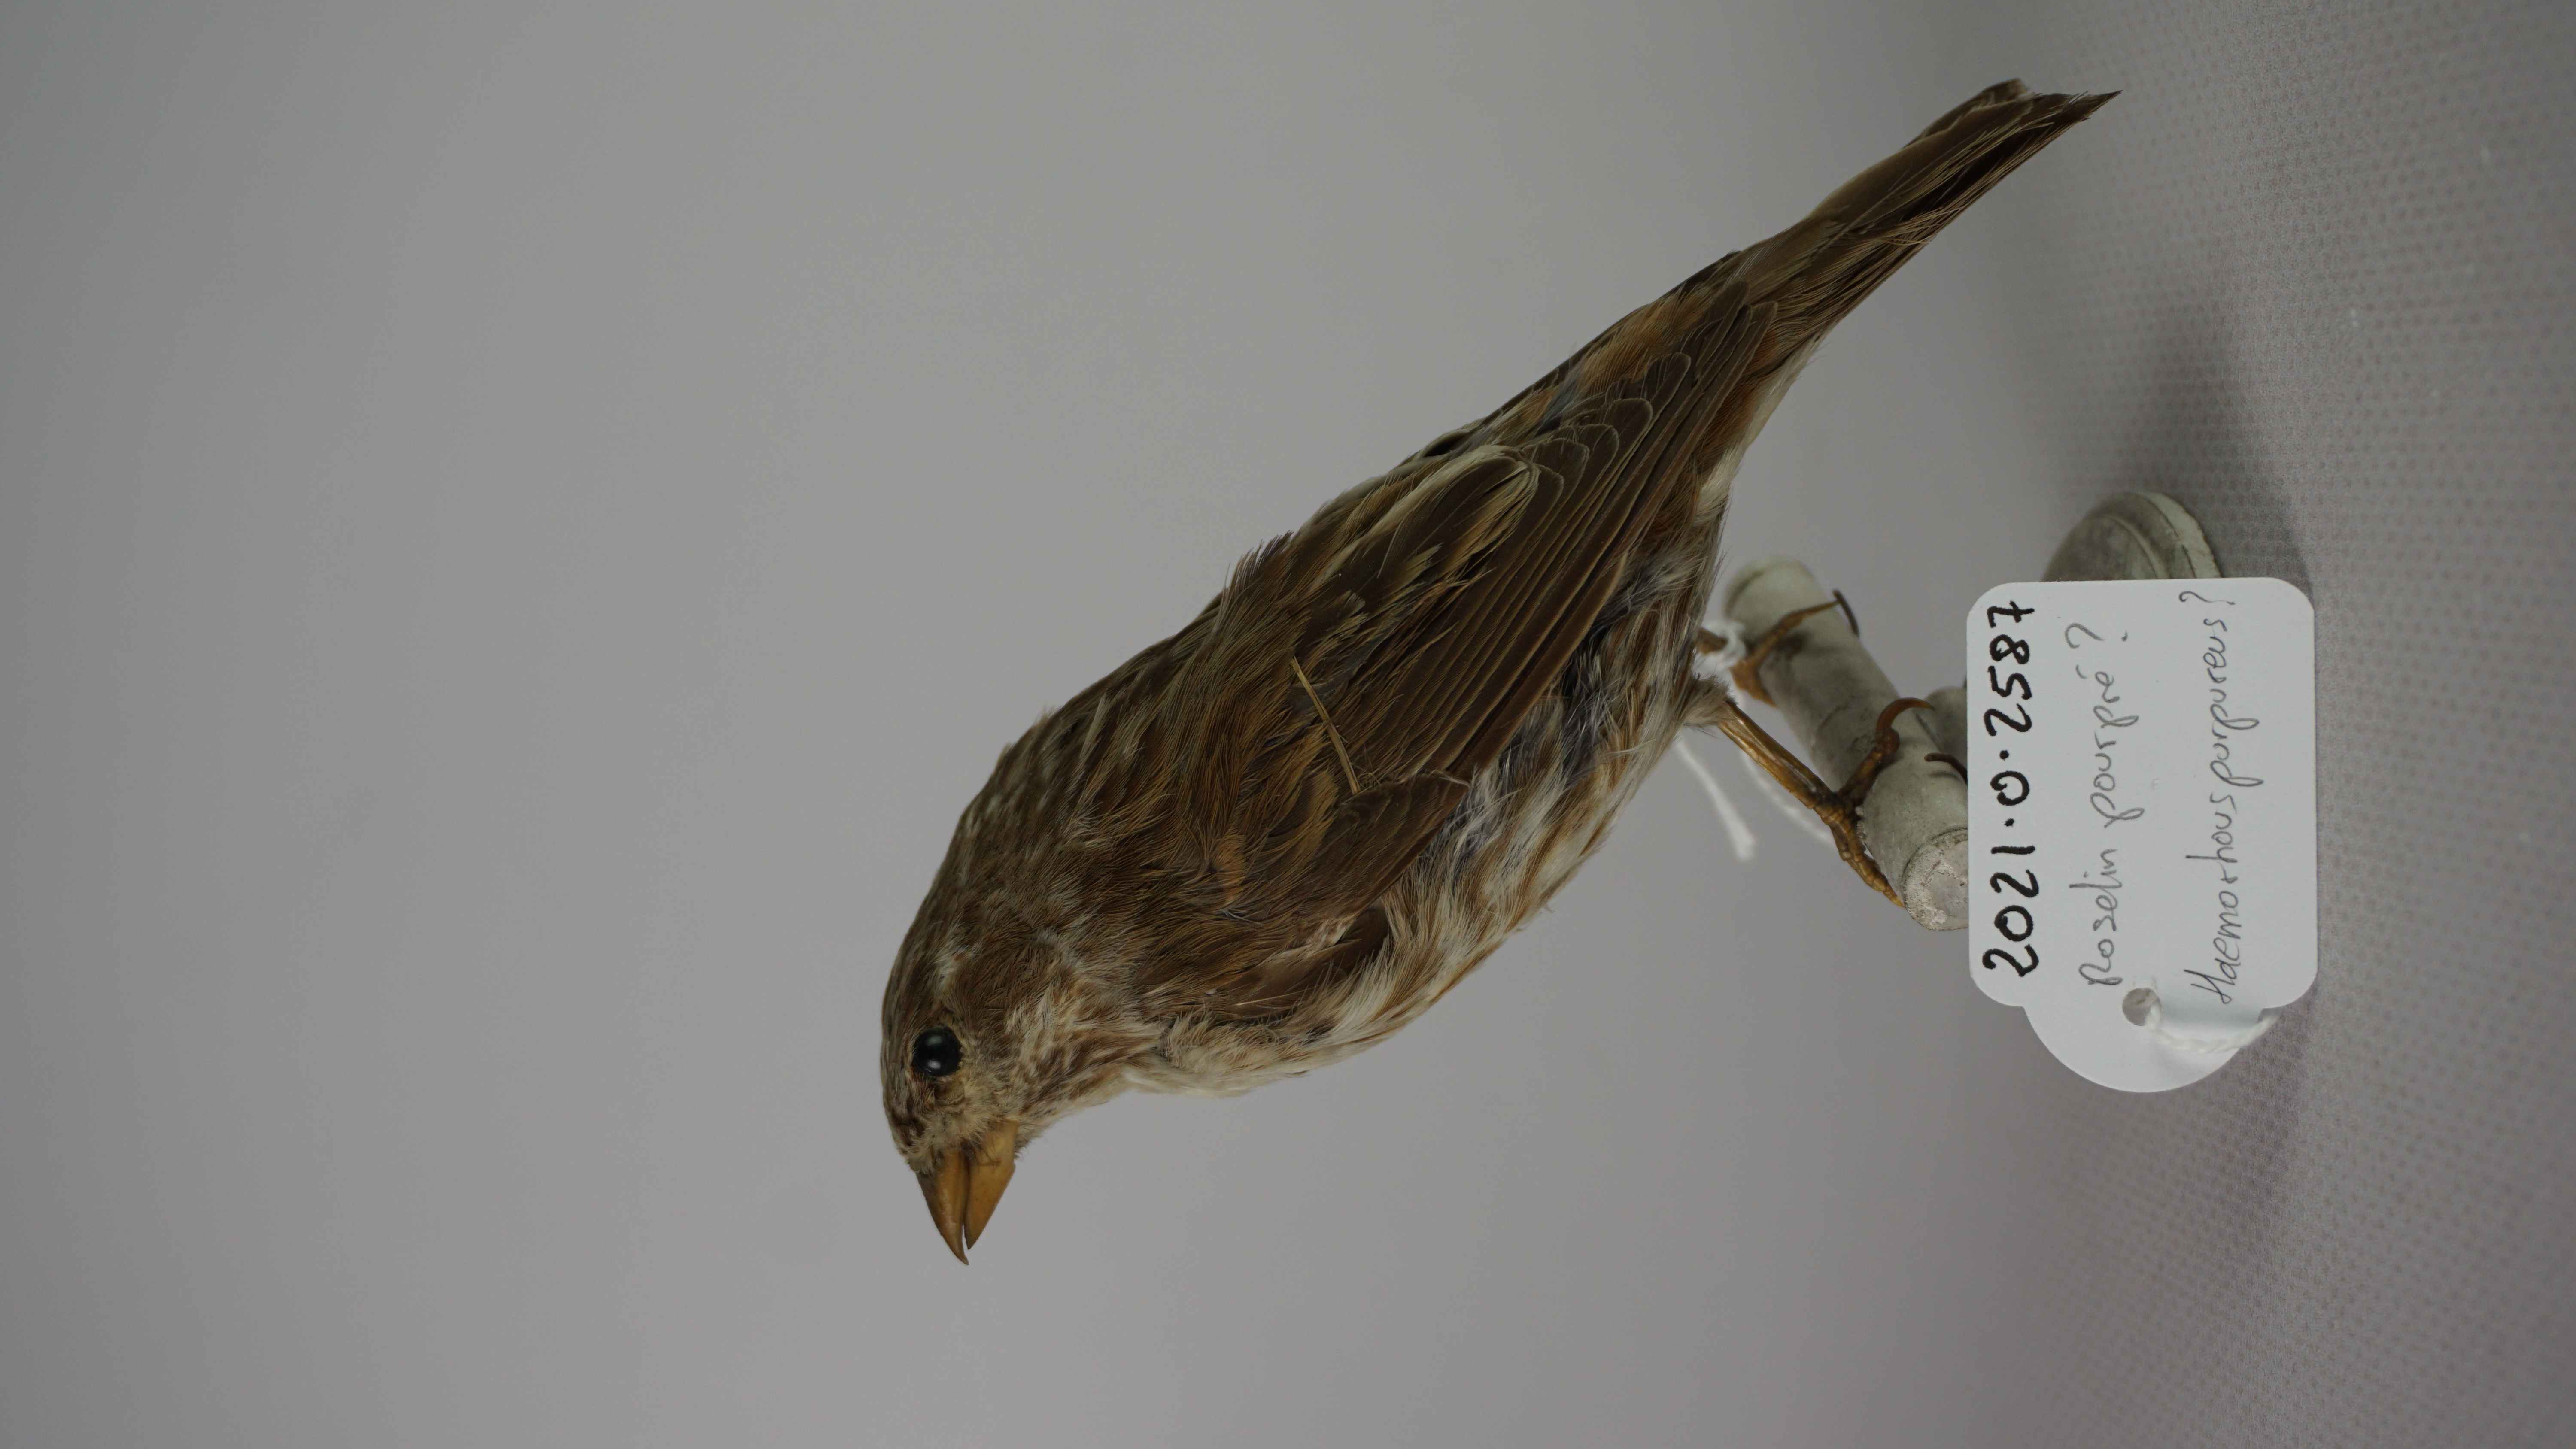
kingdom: Animalia
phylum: Chordata
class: Aves
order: Passeriformes
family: Fringillidae
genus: Haemorhous
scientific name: Haemorhous purpureus
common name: Purple finch
